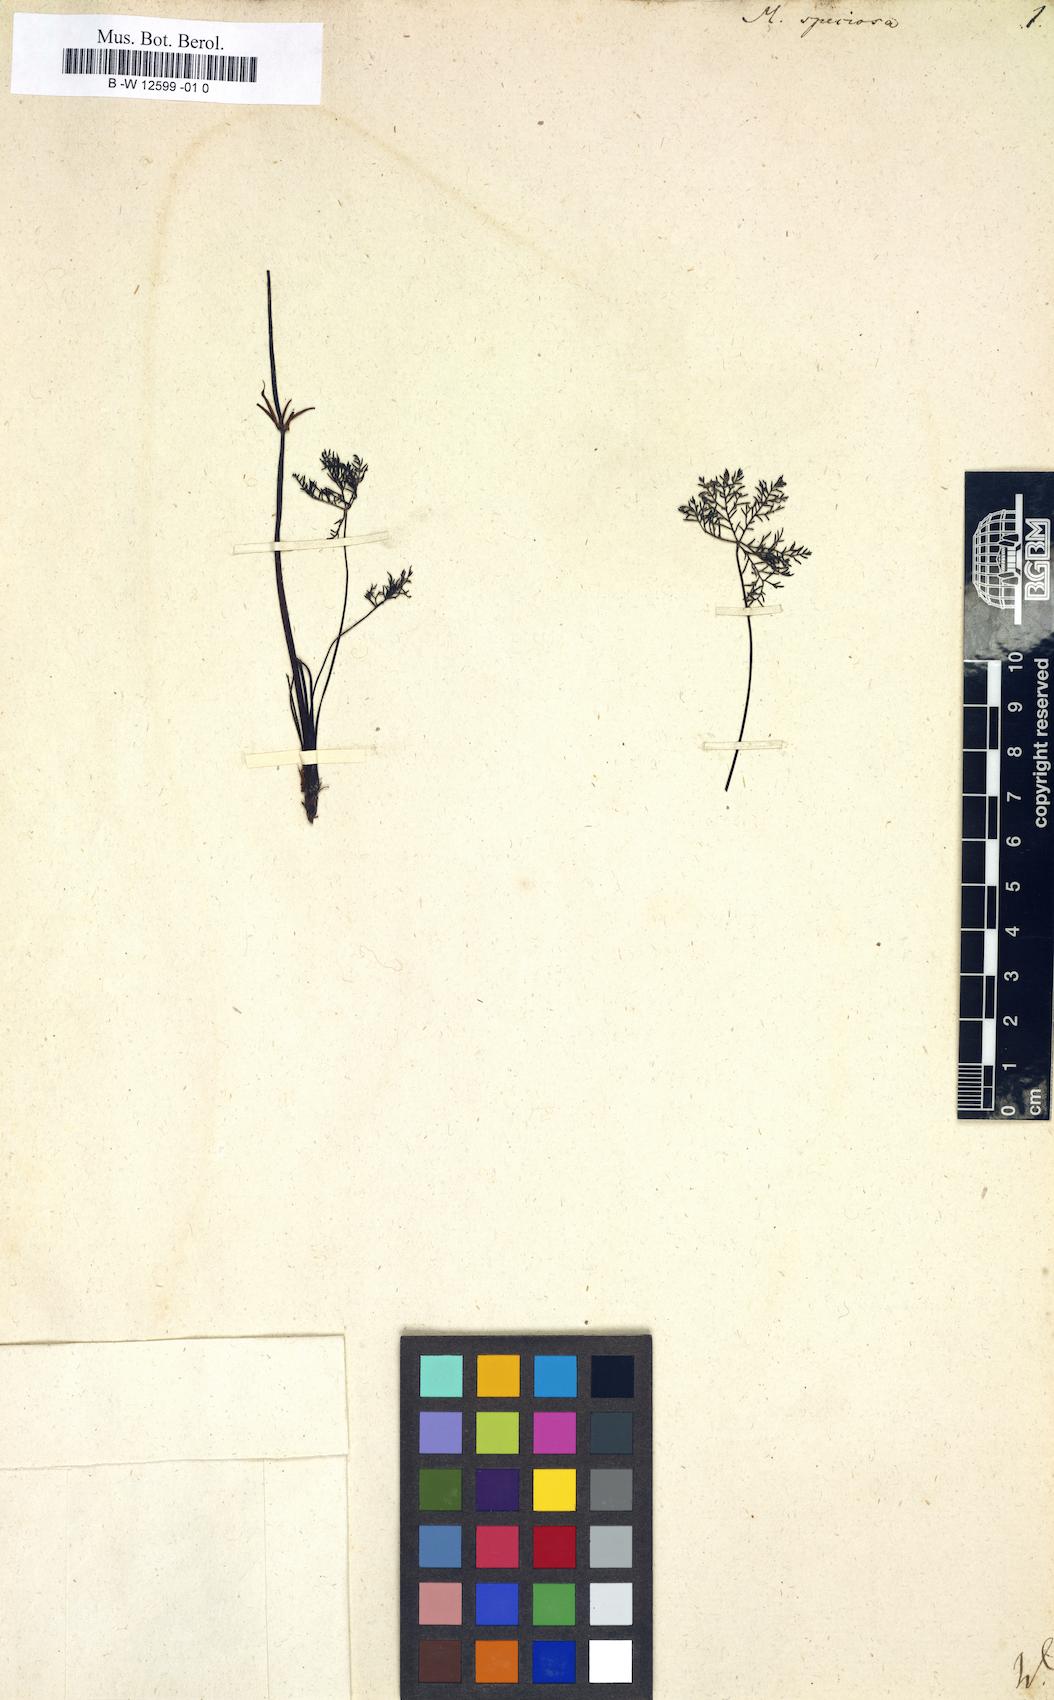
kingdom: Plantae
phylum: Tracheophyta
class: Magnoliopsida
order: Geraniales
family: Geraniaceae
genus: Monsonia
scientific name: Monsonia speciosa
